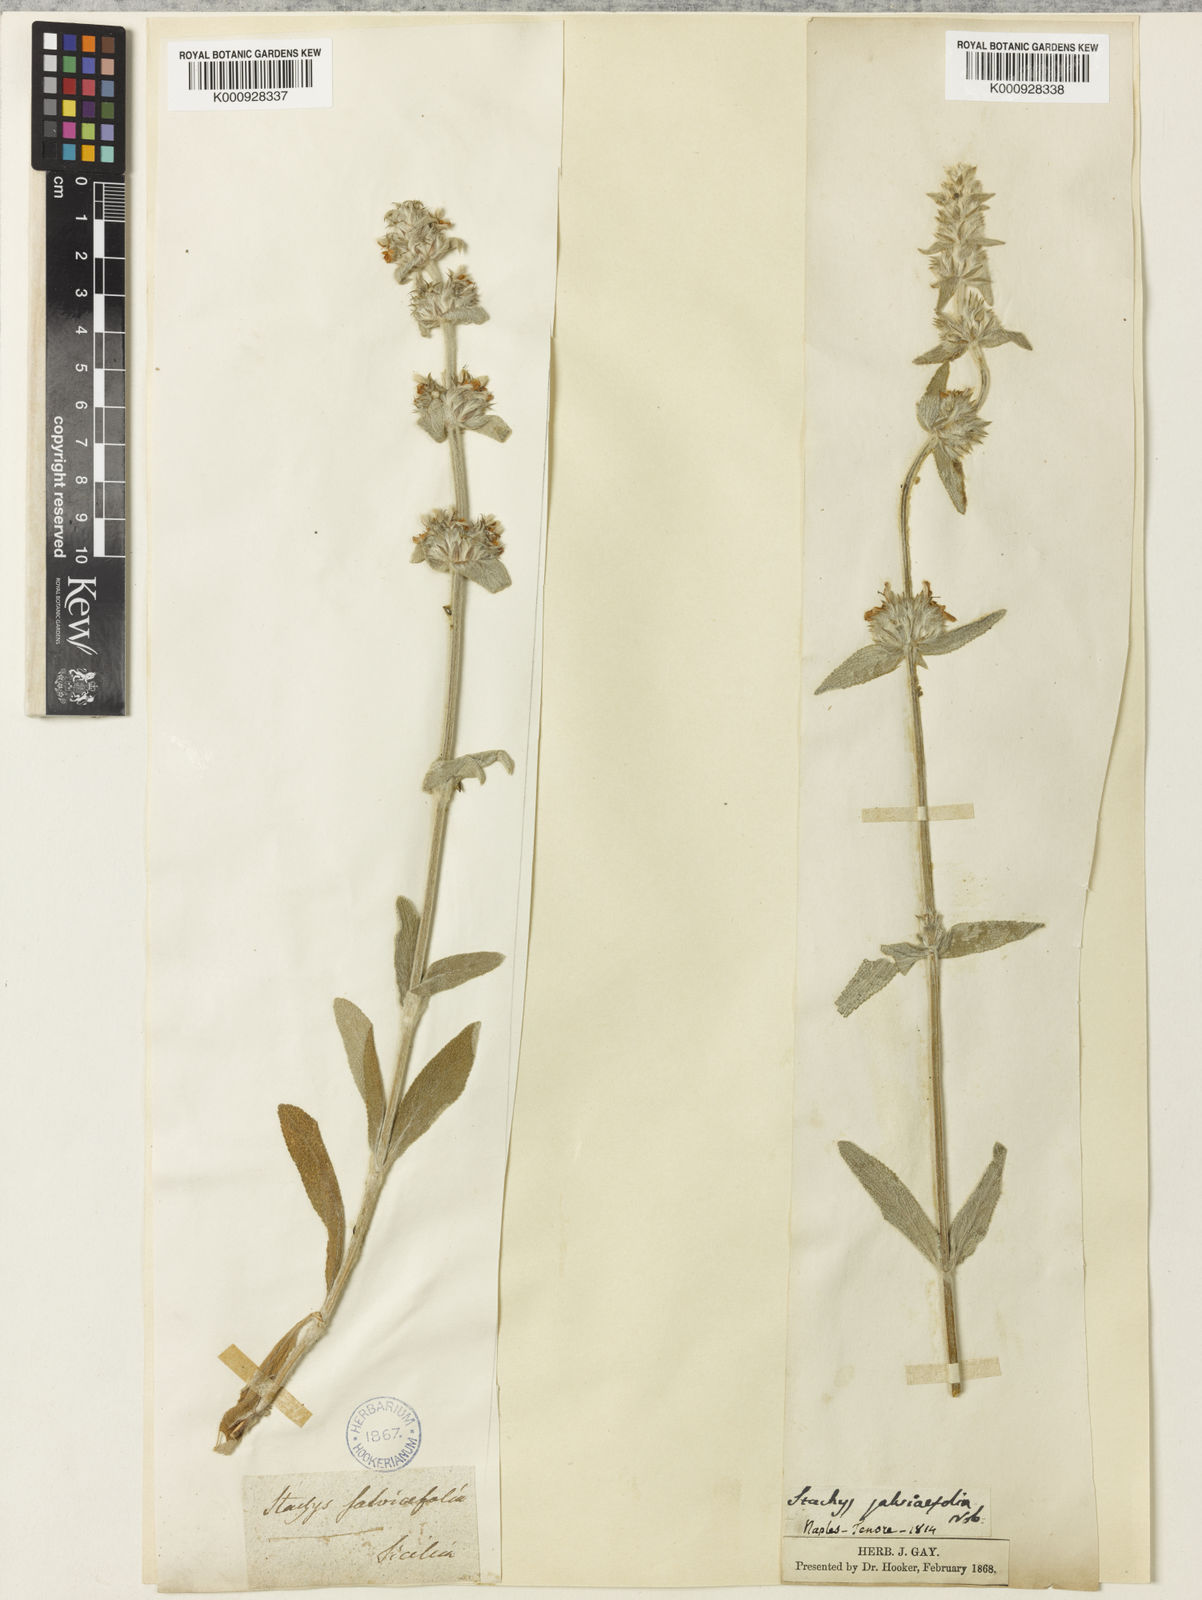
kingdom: Plantae
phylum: Tracheophyta
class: Magnoliopsida
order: Lamiales
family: Lamiaceae
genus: Stachys
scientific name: Stachys cretica
